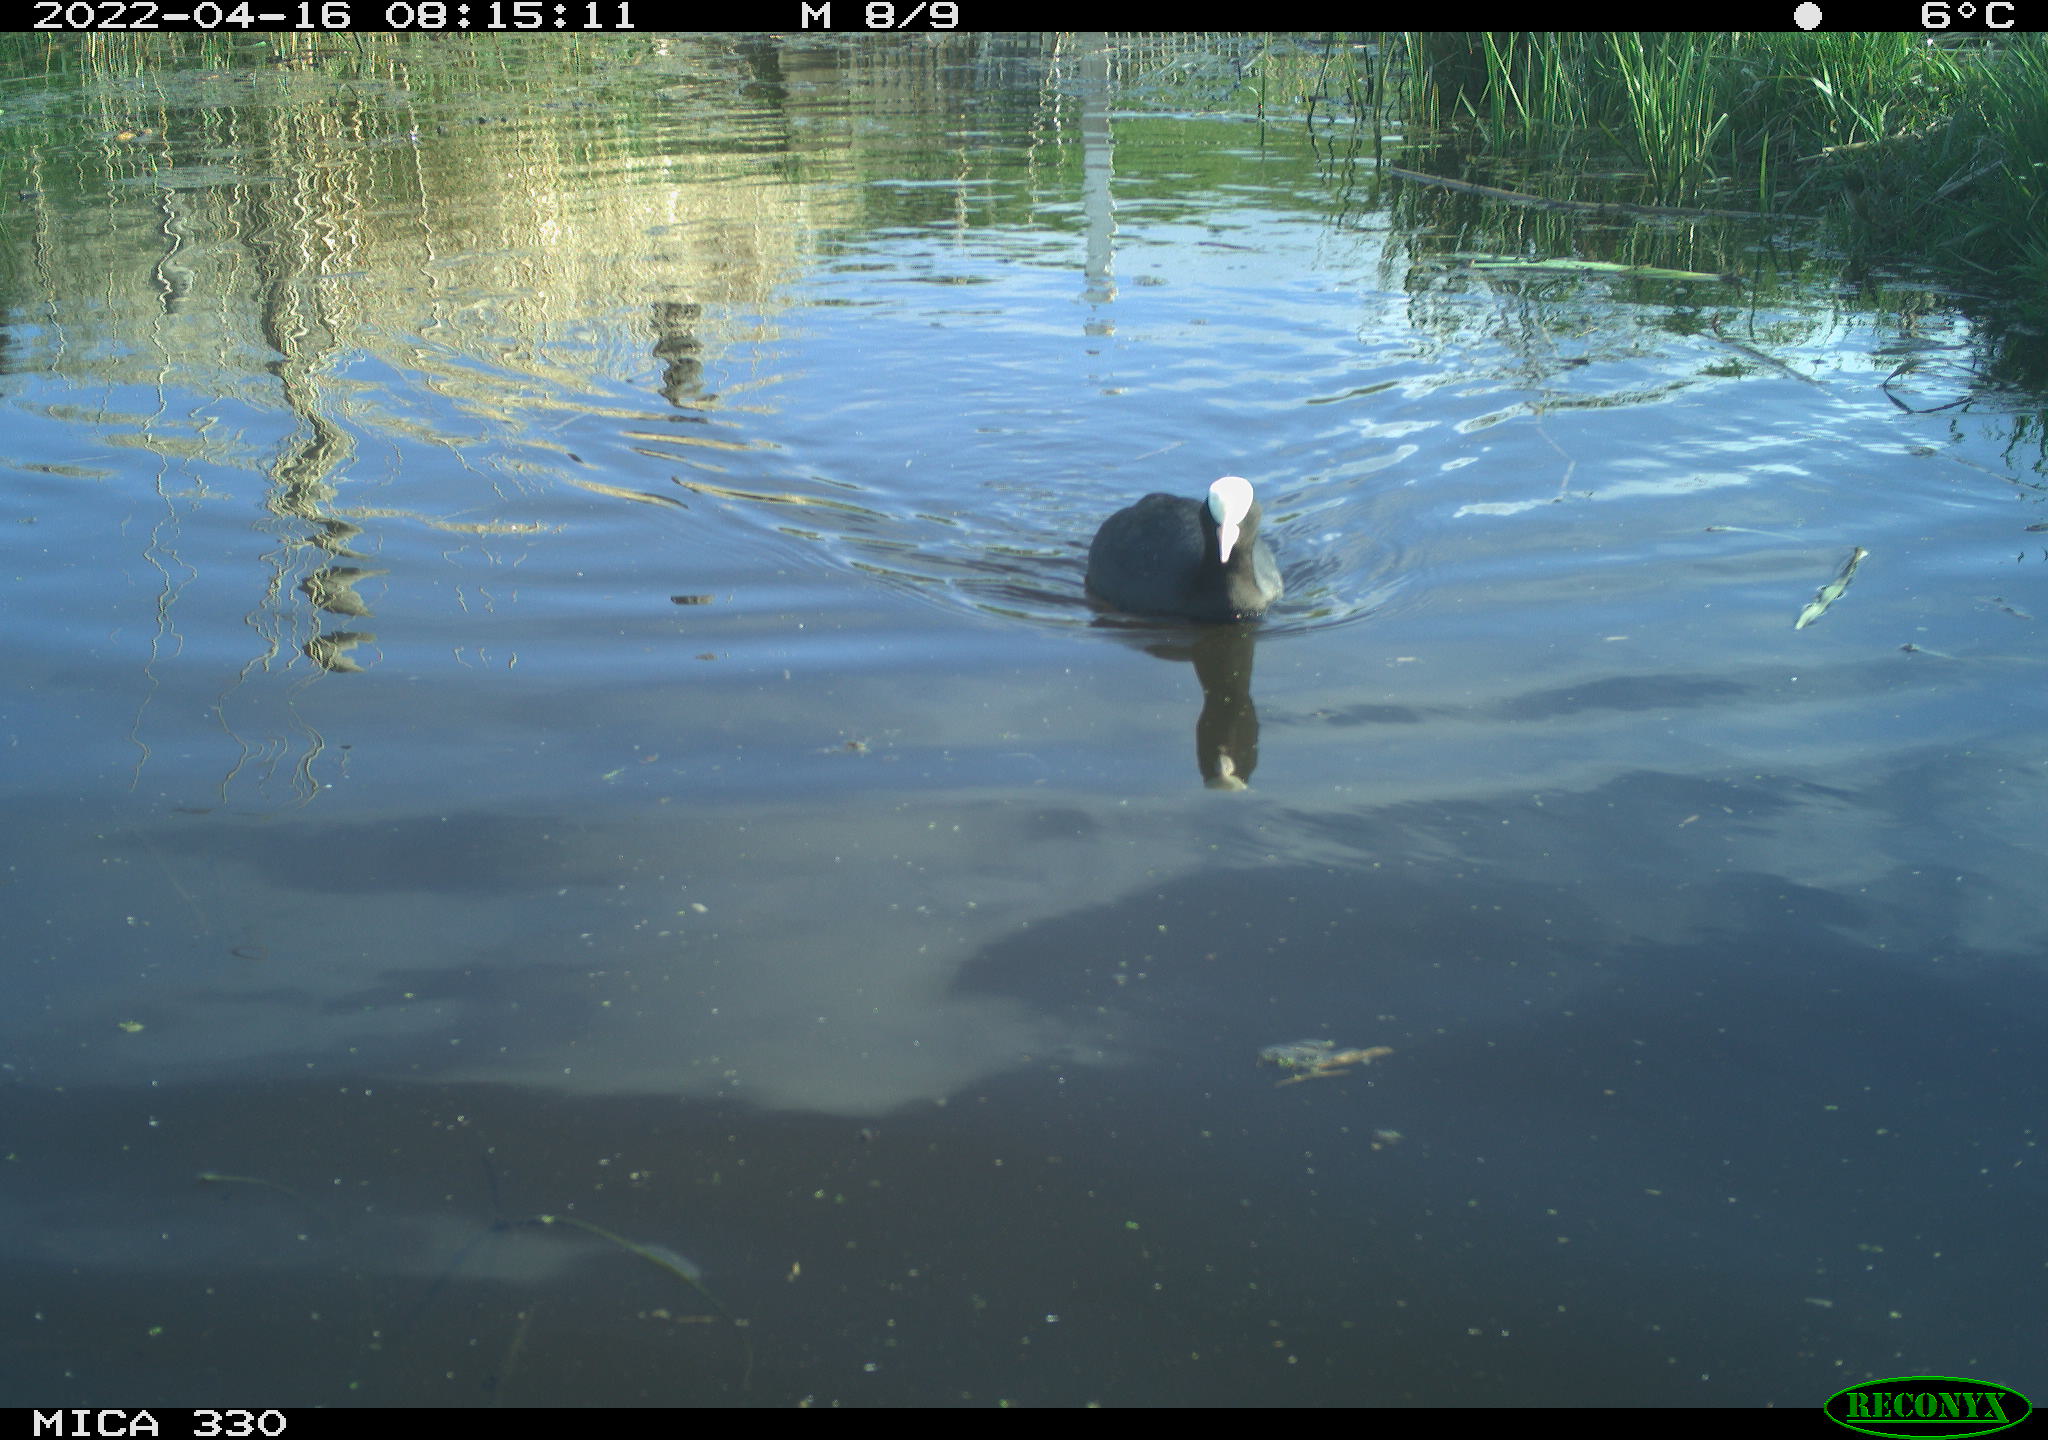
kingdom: Animalia
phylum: Chordata
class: Aves
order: Gruiformes
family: Rallidae
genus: Fulica
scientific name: Fulica atra
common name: Eurasian coot
